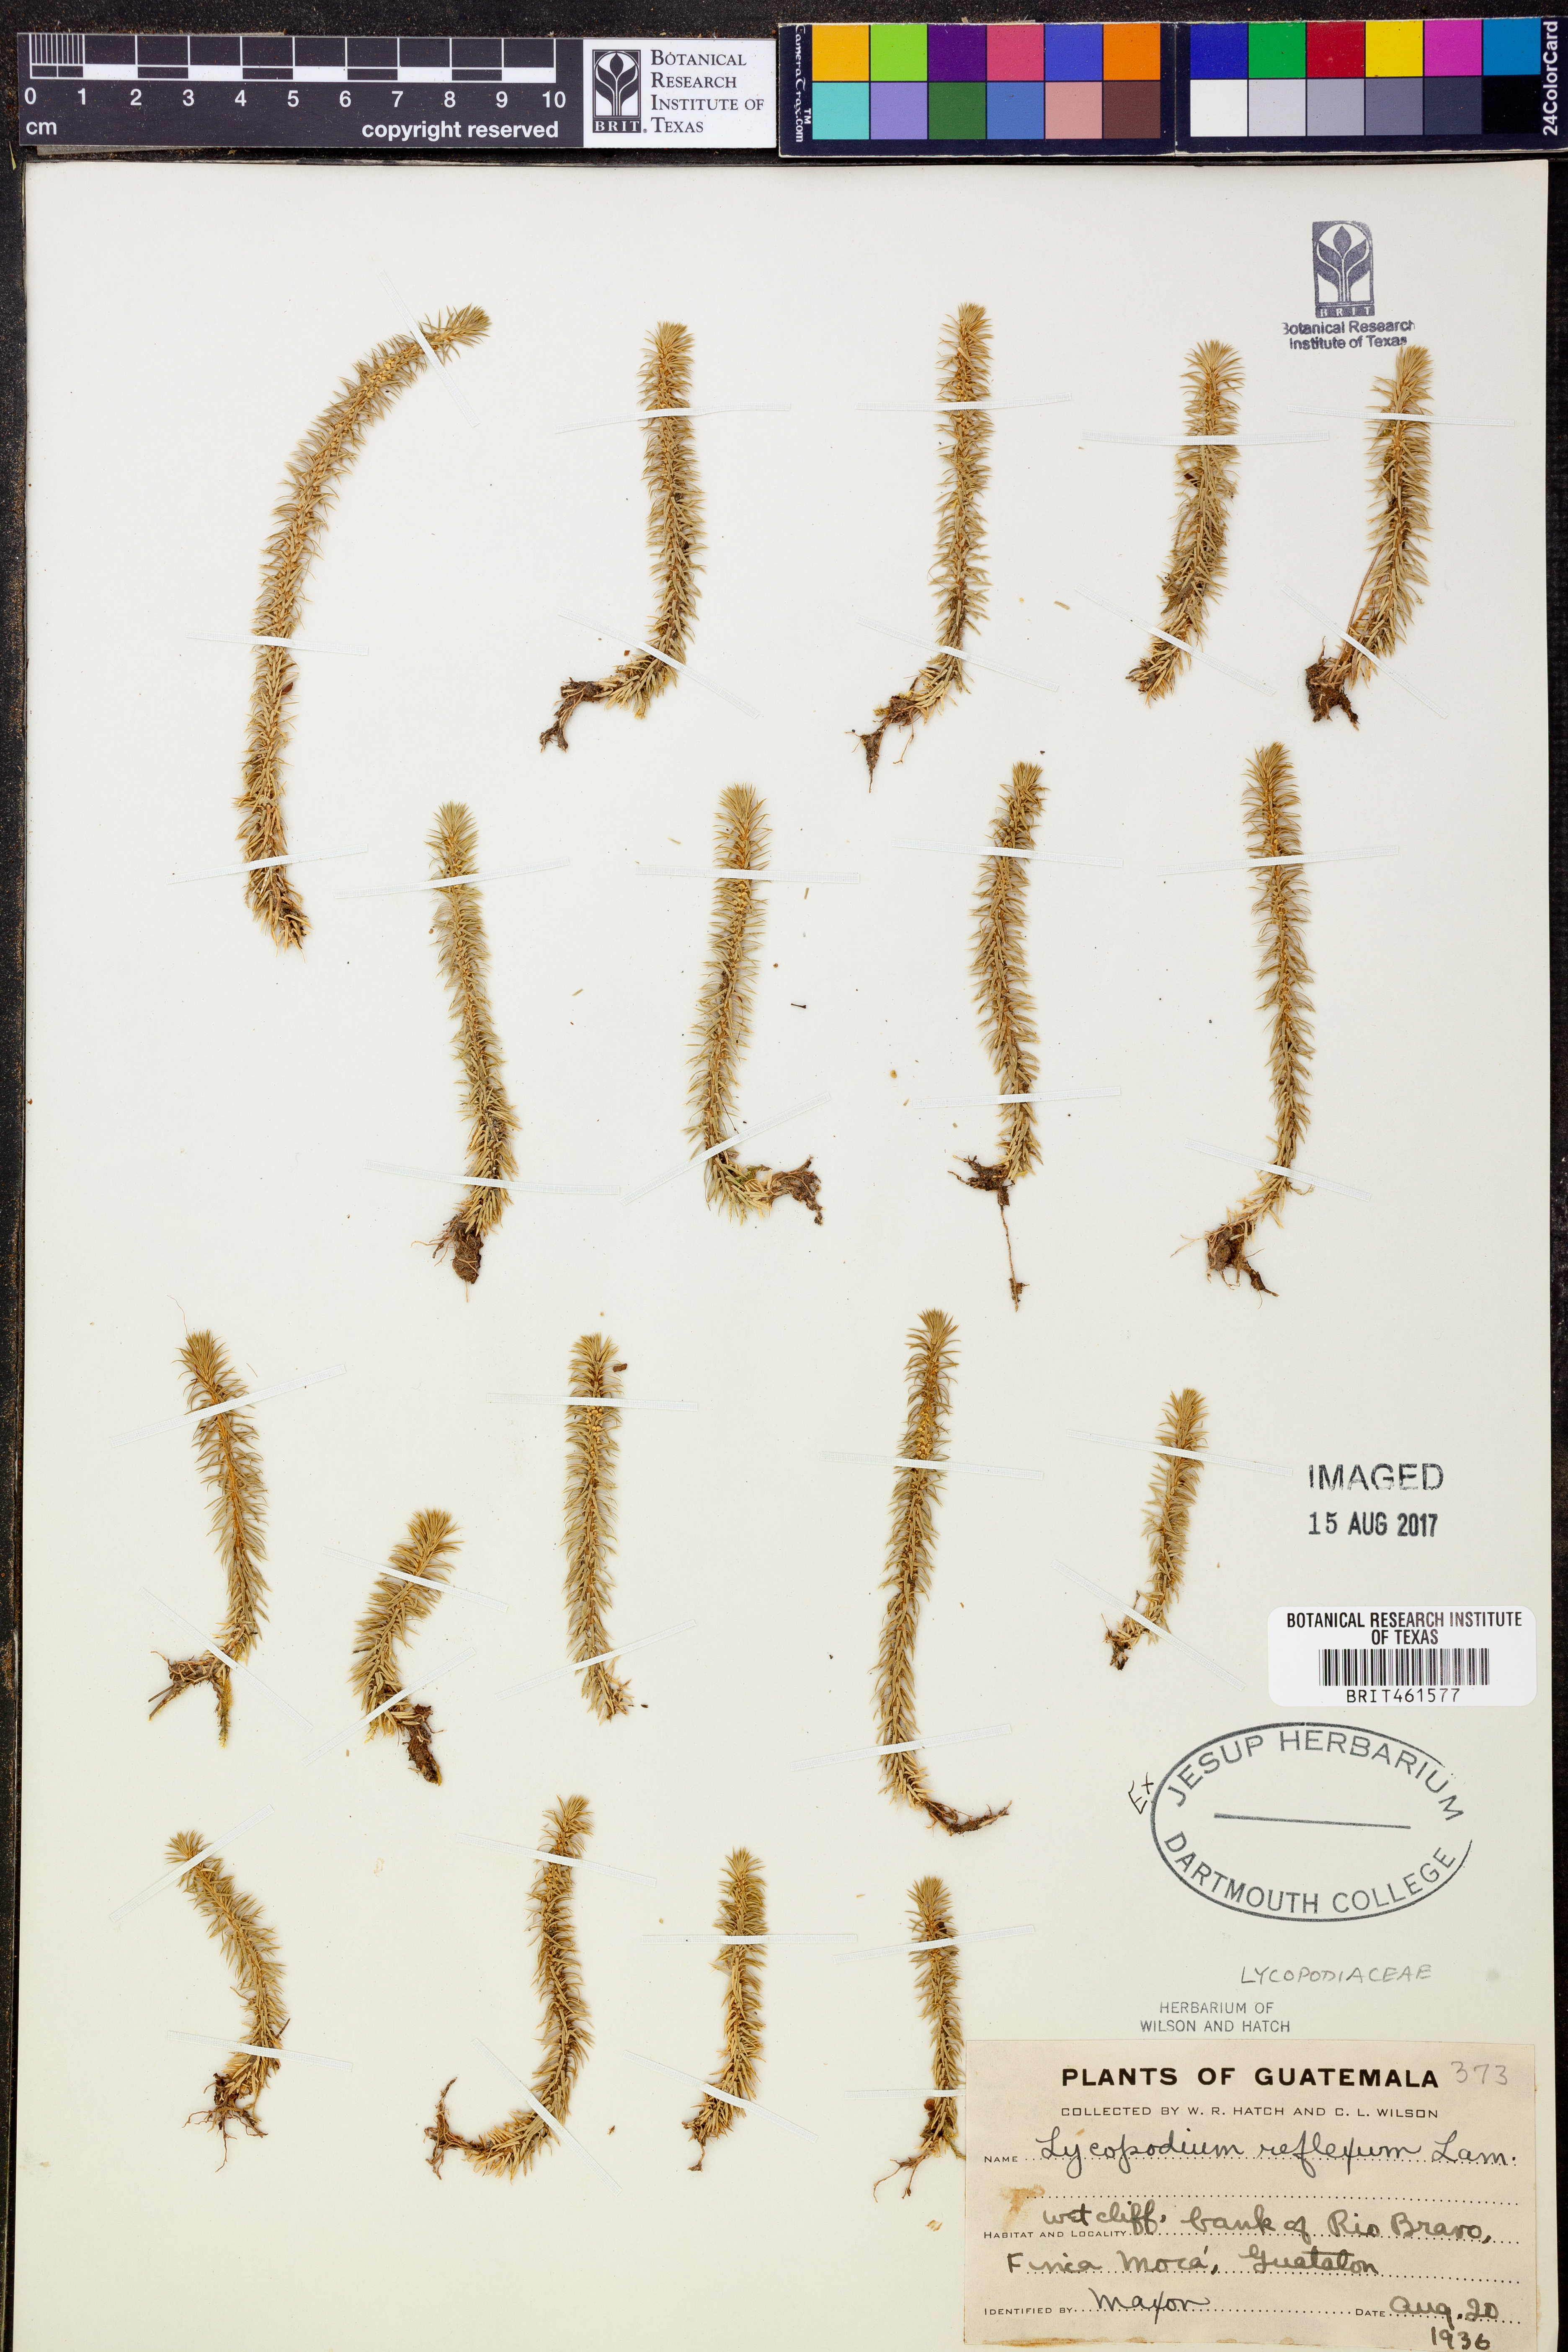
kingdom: Plantae
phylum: Tracheophyta
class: Lycopodiopsida
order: Lycopodiales
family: Lycopodiaceae
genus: Phlegmariurus
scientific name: Phlegmariurus reflexus
